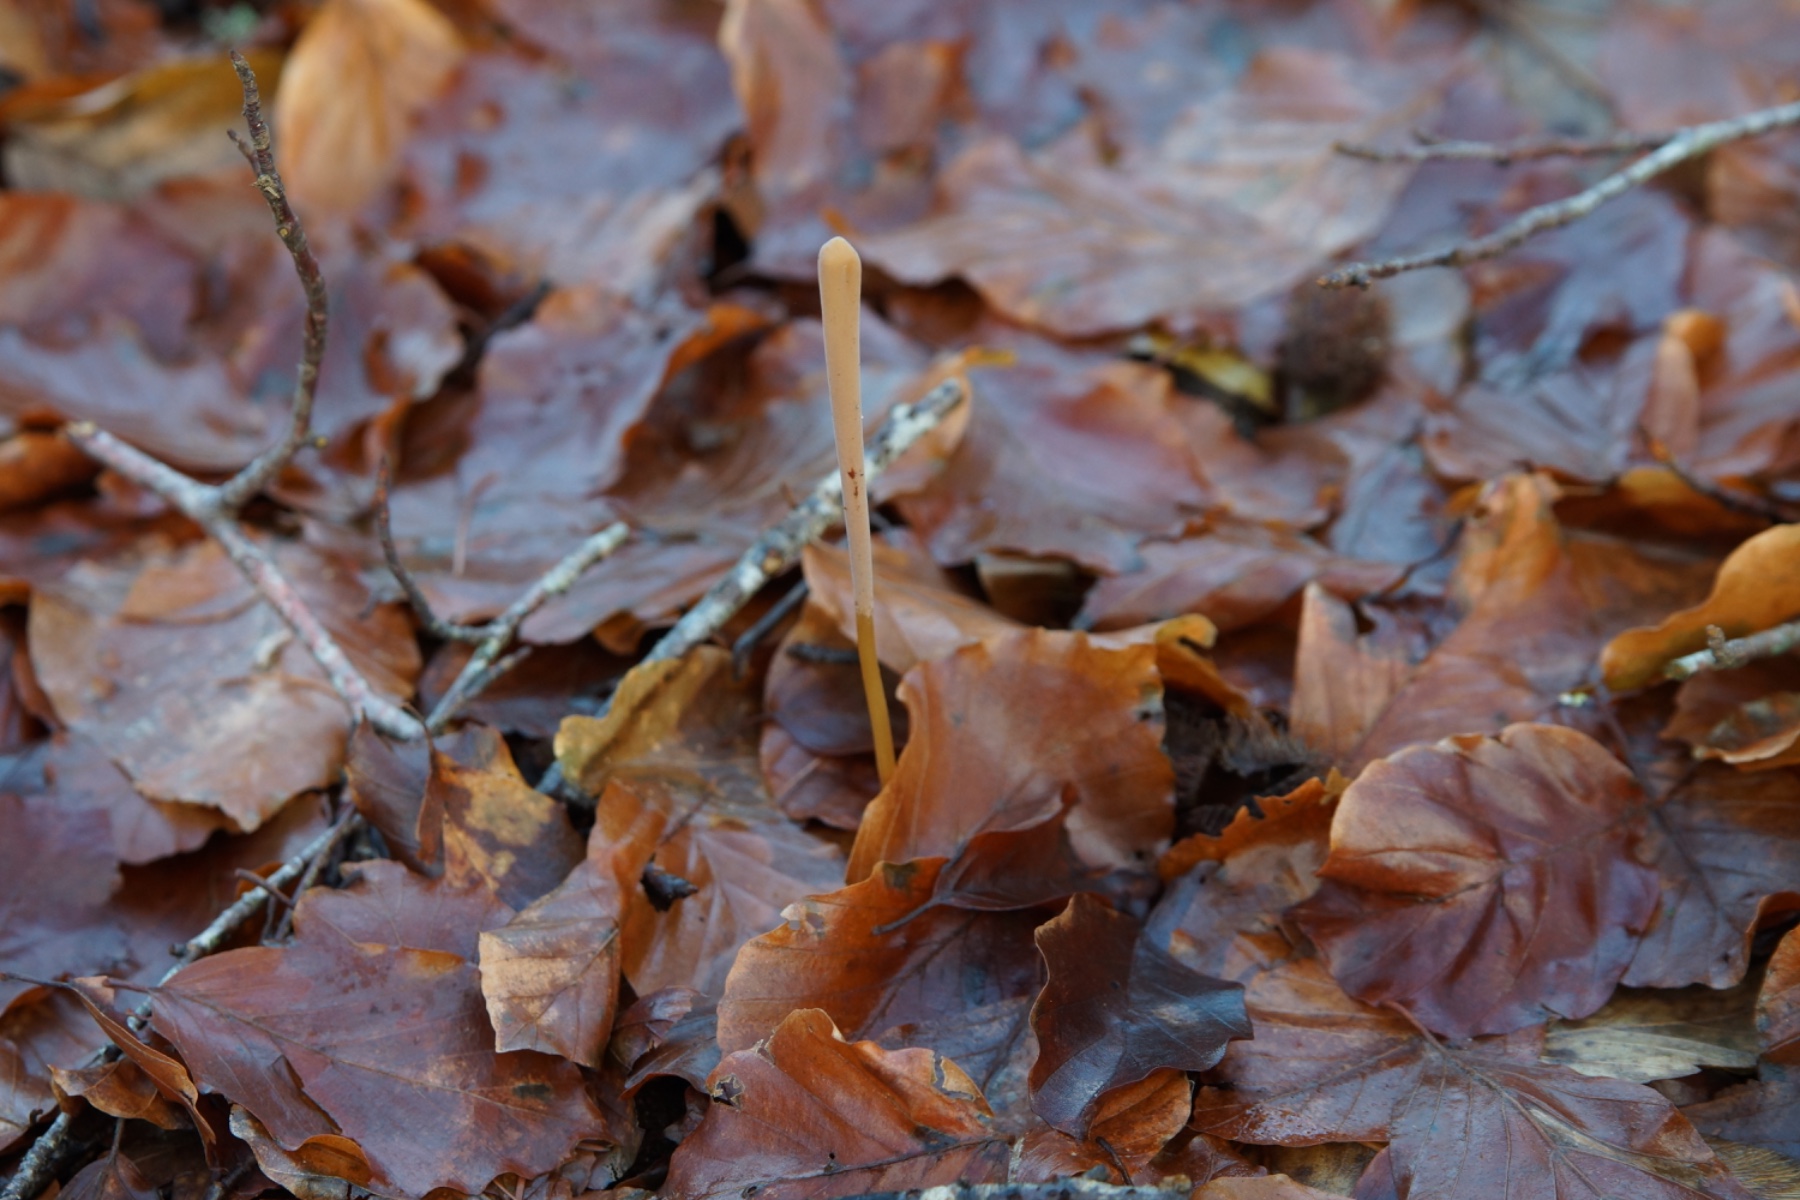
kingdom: Fungi
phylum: Basidiomycota
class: Agaricomycetes
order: Agaricales
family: Typhulaceae
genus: Typhula
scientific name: Typhula fistulosa
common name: pibet rørkølle
